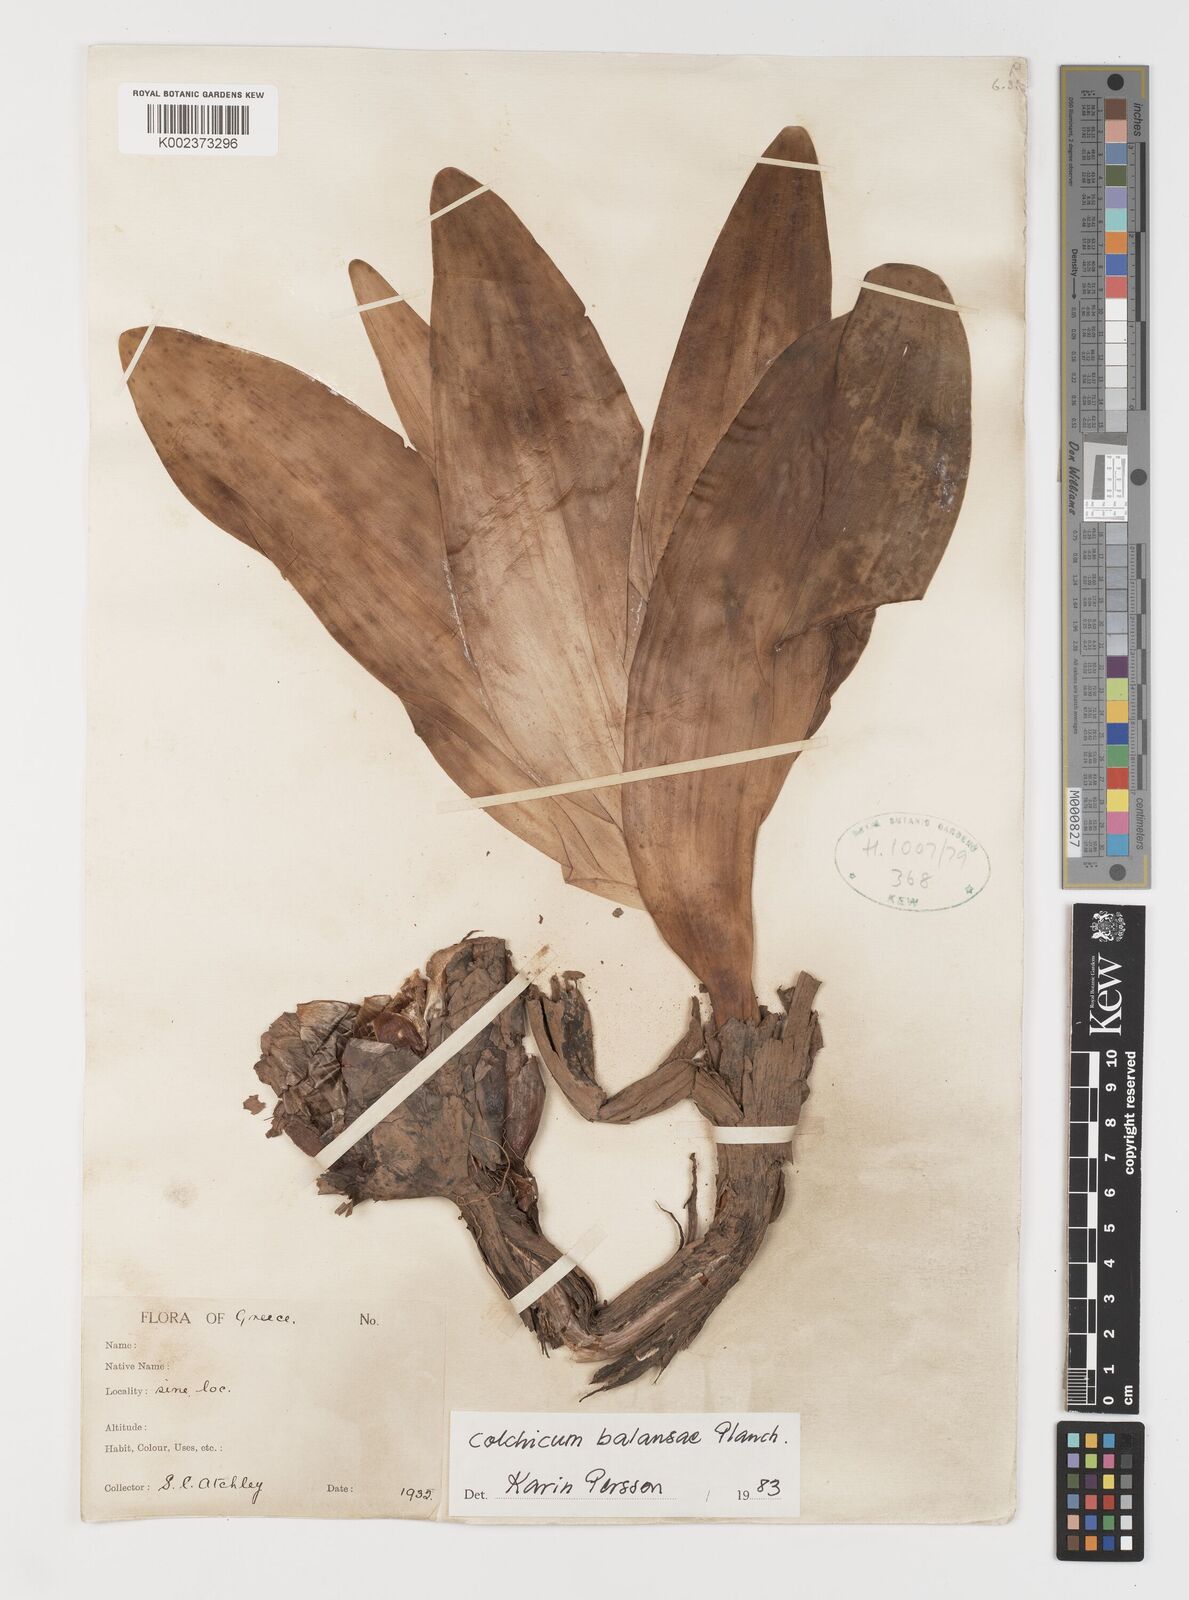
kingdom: Plantae
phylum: Tracheophyta
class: Liliopsida
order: Liliales
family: Colchicaceae
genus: Colchicum
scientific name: Colchicum balansae
